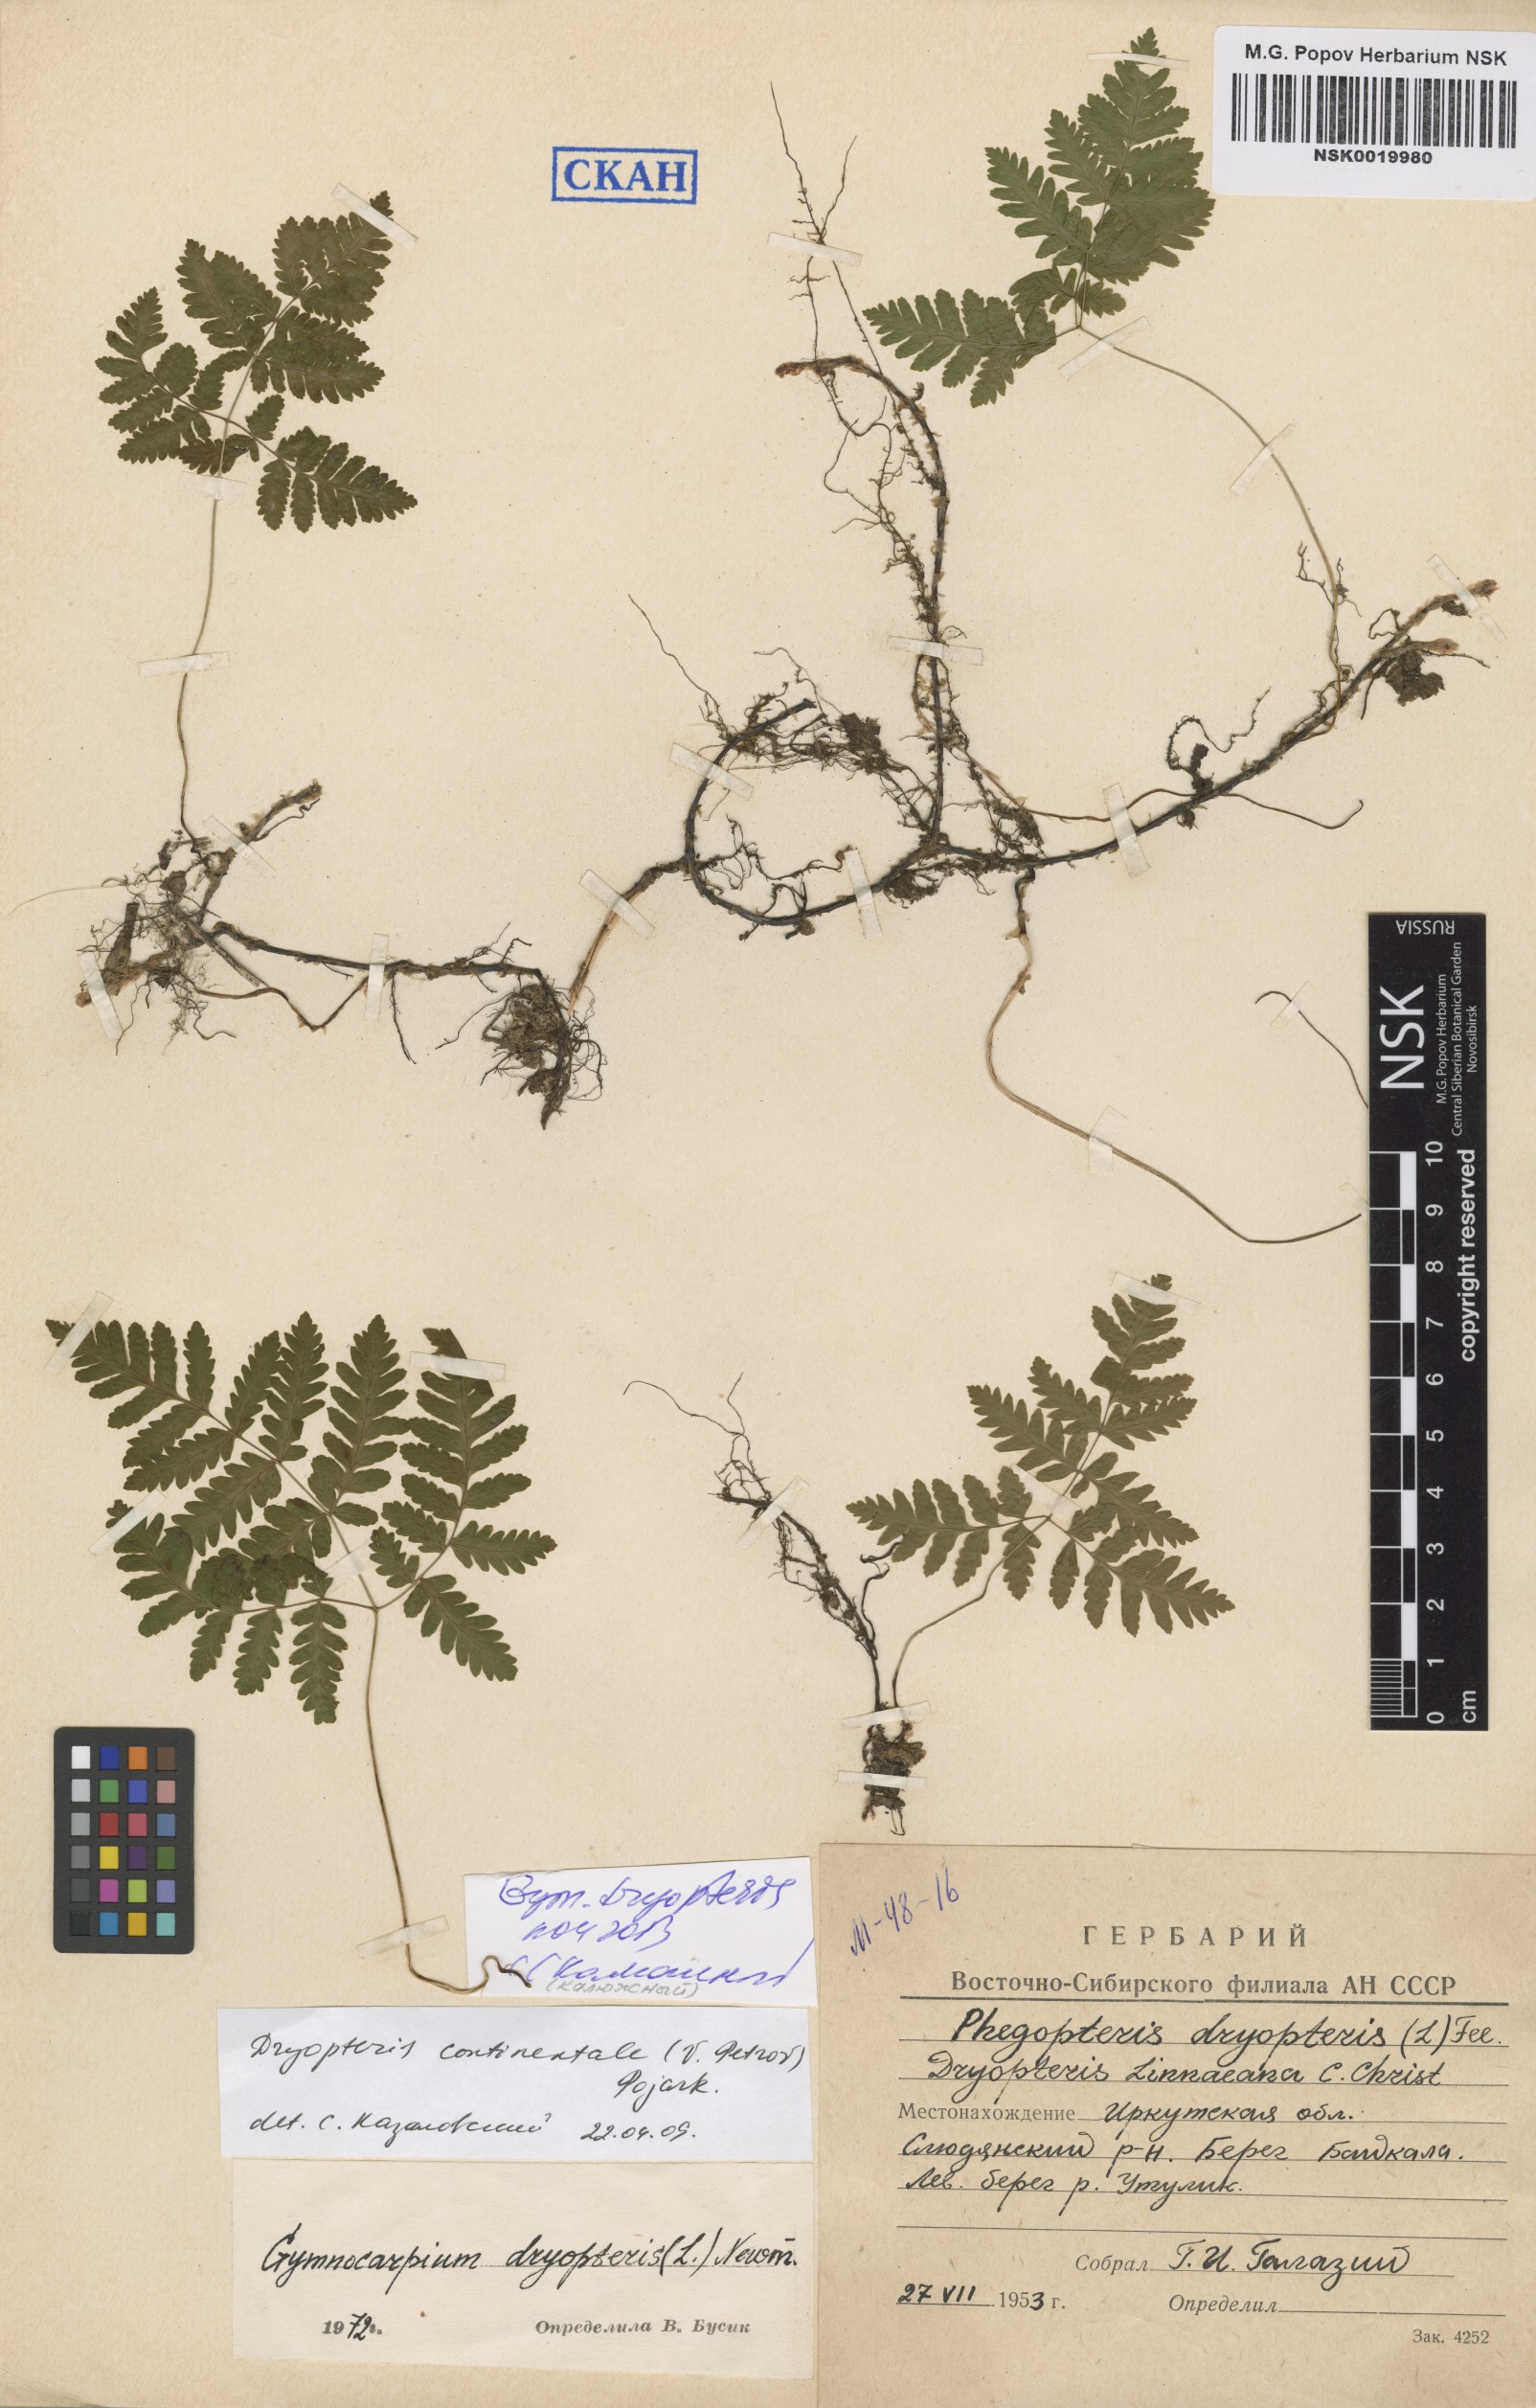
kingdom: Plantae
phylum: Tracheophyta
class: Polypodiopsida
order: Polypodiales
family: Cystopteridaceae
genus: Gymnocarpium
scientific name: Gymnocarpium dryopteris
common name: Oak fern
